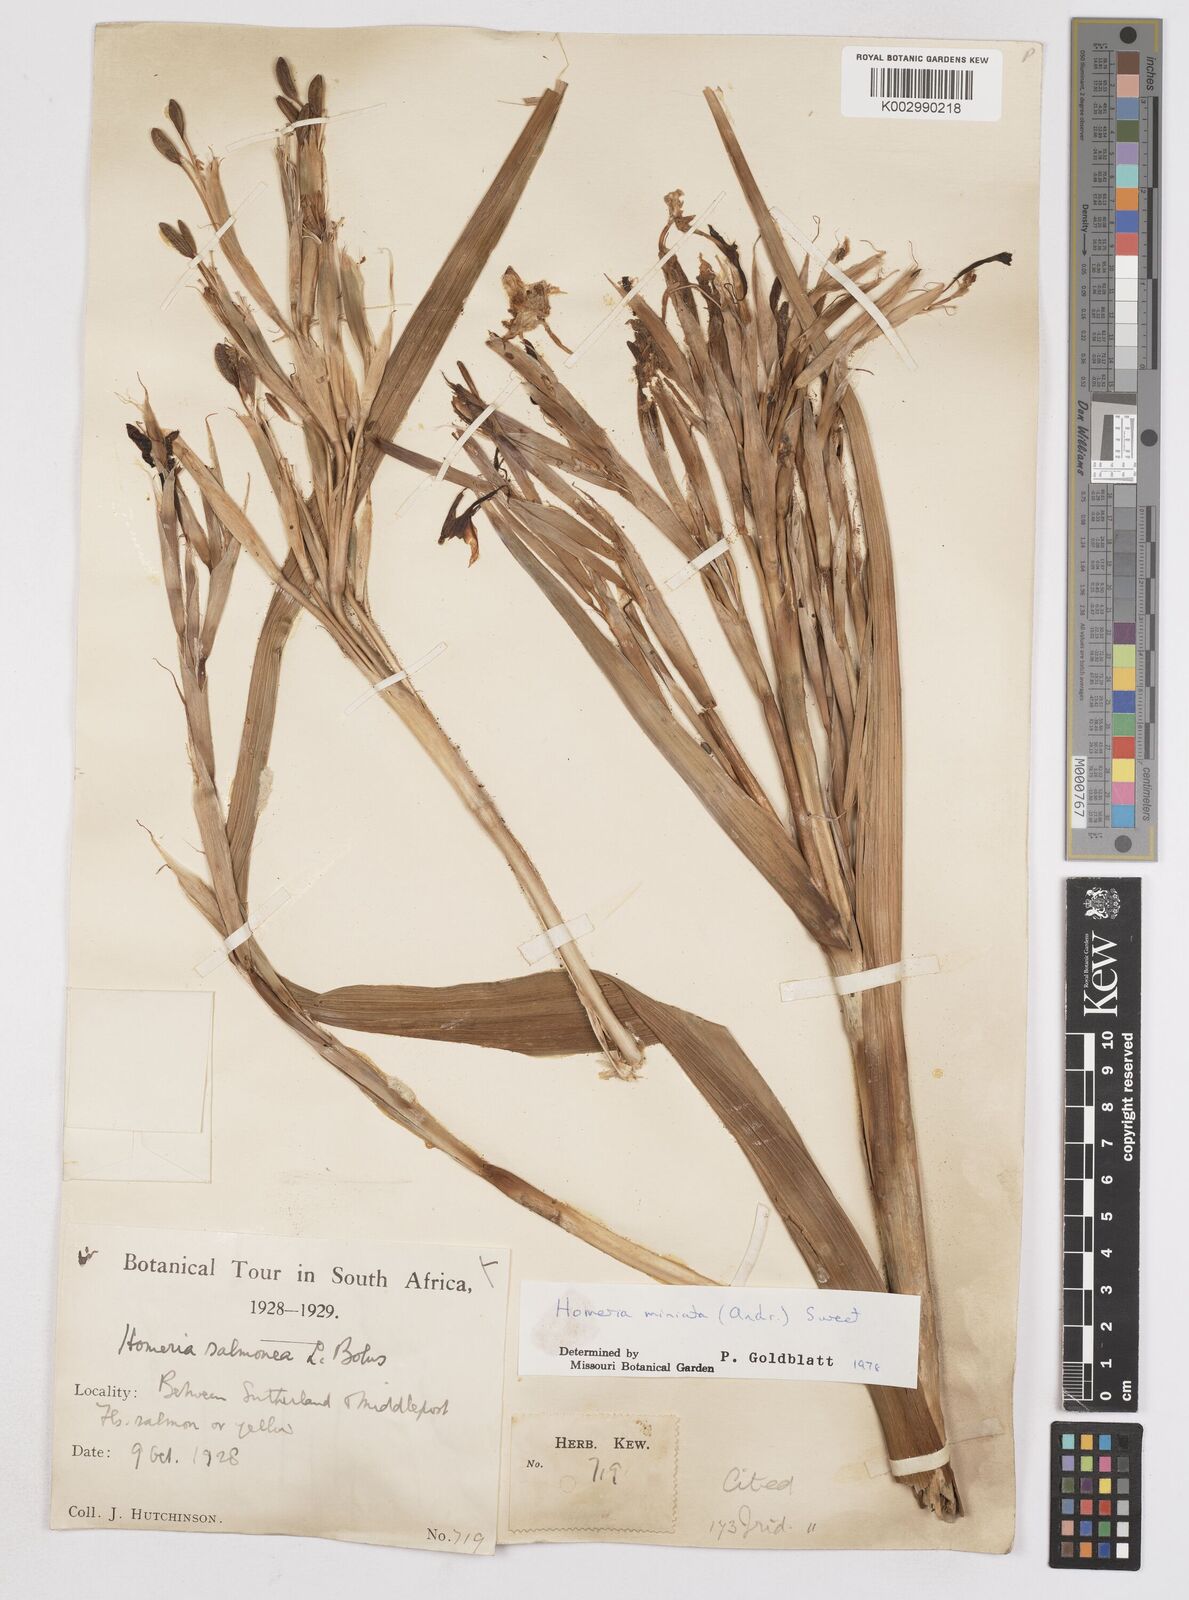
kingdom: Plantae
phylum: Tracheophyta
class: Liliopsida
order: Asparagales
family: Iridaceae
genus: Moraea
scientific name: Moraea miniata
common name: Two-leaf cape-tulip
